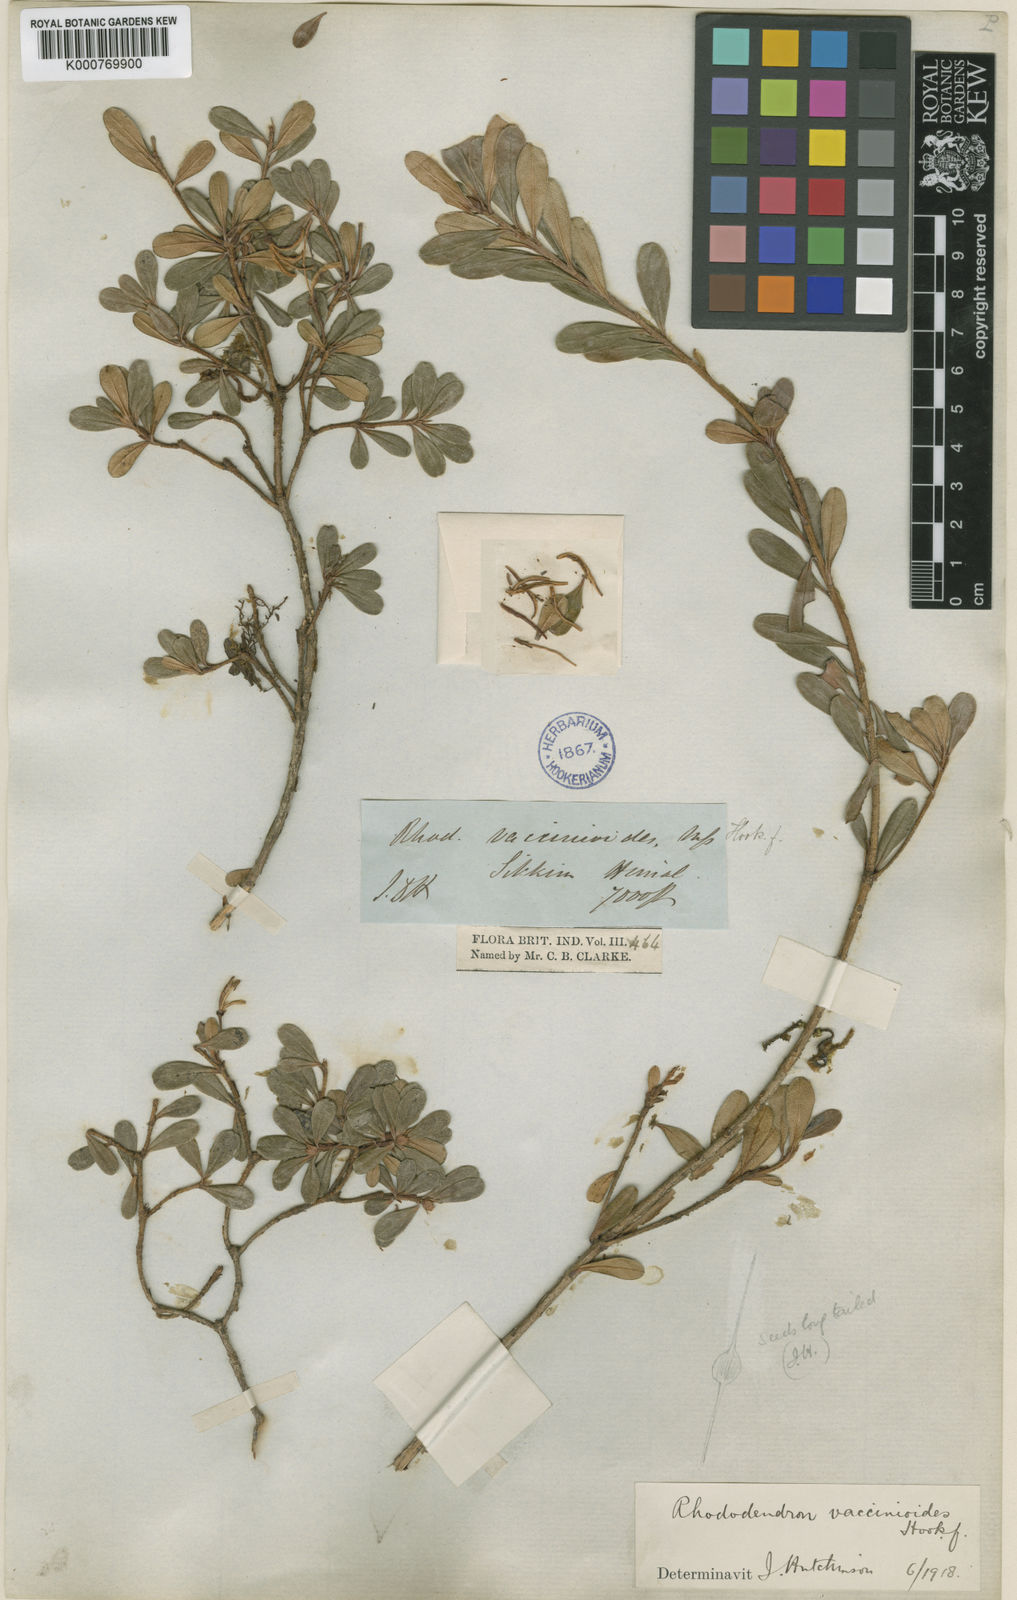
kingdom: Plantae
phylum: Tracheophyta
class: Magnoliopsida
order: Ericales
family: Ericaceae
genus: Rhododendron
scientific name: Rhododendron
